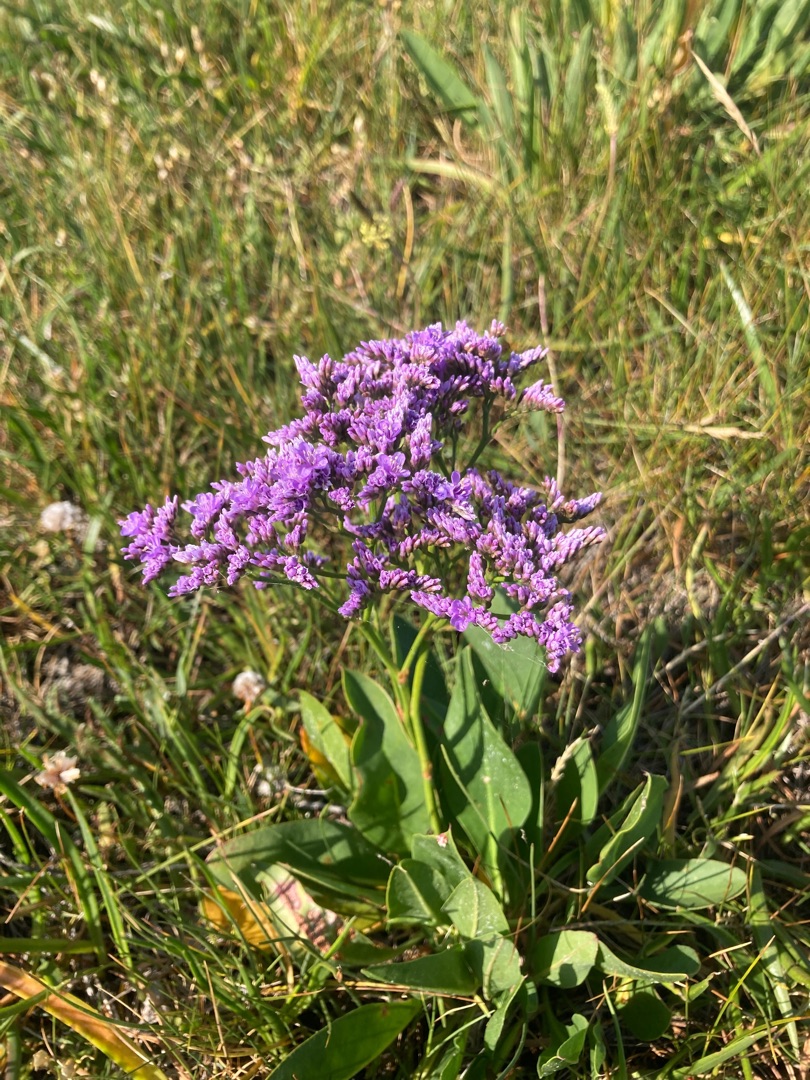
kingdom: Plantae
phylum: Tracheophyta
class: Magnoliopsida
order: Caryophyllales
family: Plumbaginaceae
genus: Limonium
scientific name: Limonium vulgare
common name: Tætblomstret hindebæger
